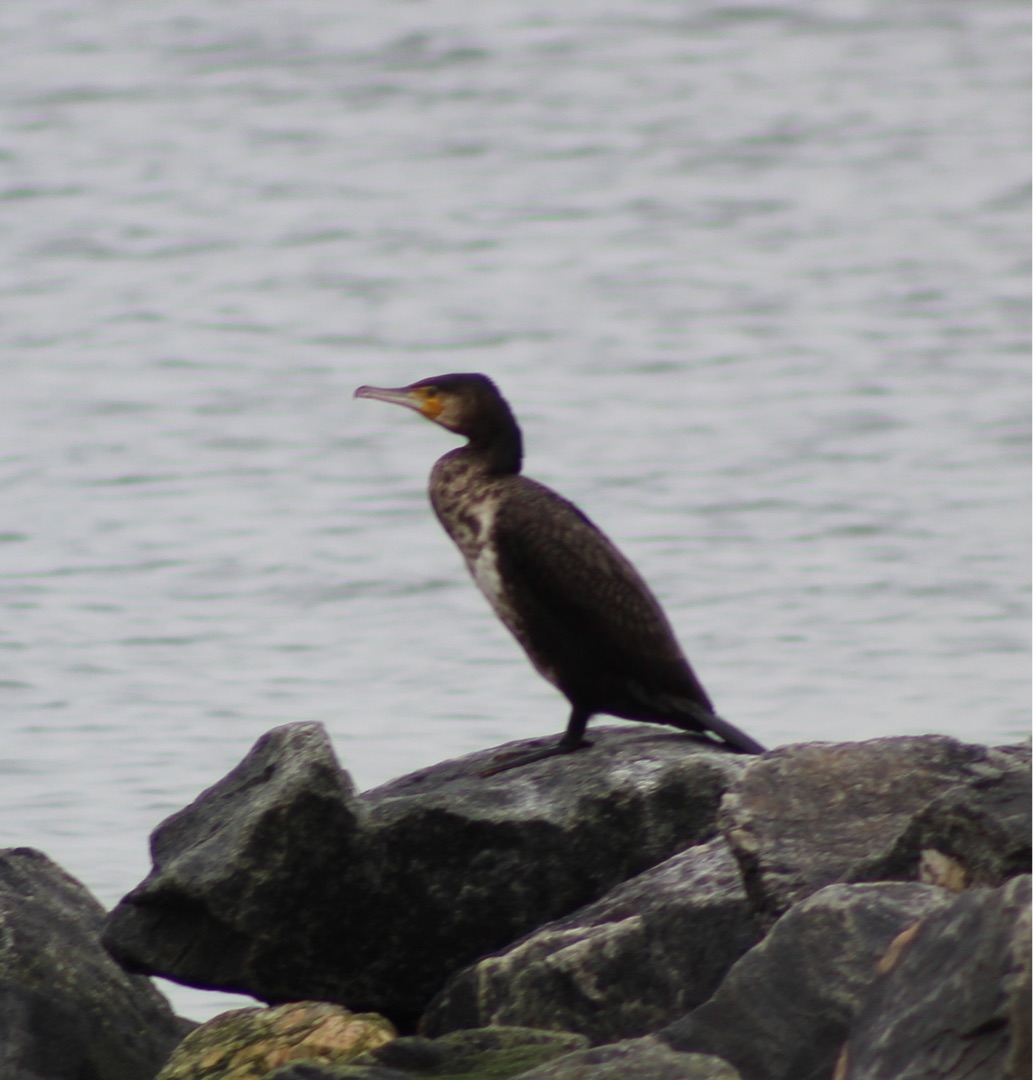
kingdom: Animalia
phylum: Chordata
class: Aves
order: Suliformes
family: Phalacrocoracidae
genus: Phalacrocorax
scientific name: Phalacrocorax carbo
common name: Skarv
